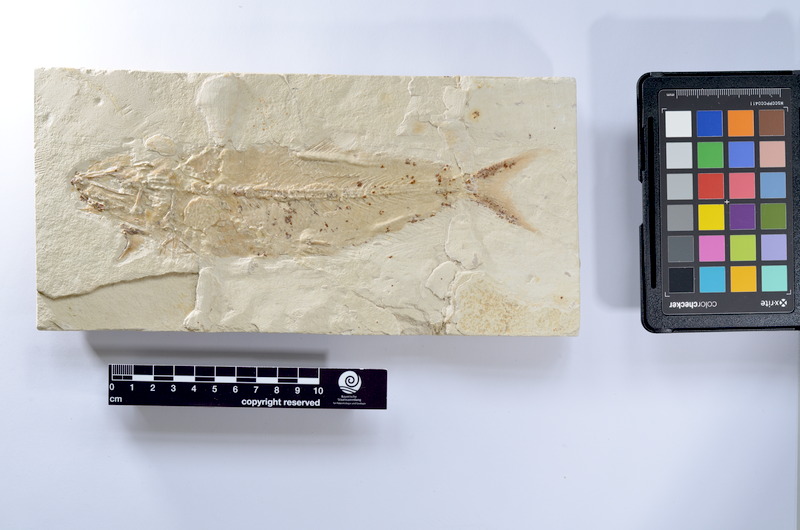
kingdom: Animalia
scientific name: Animalia
